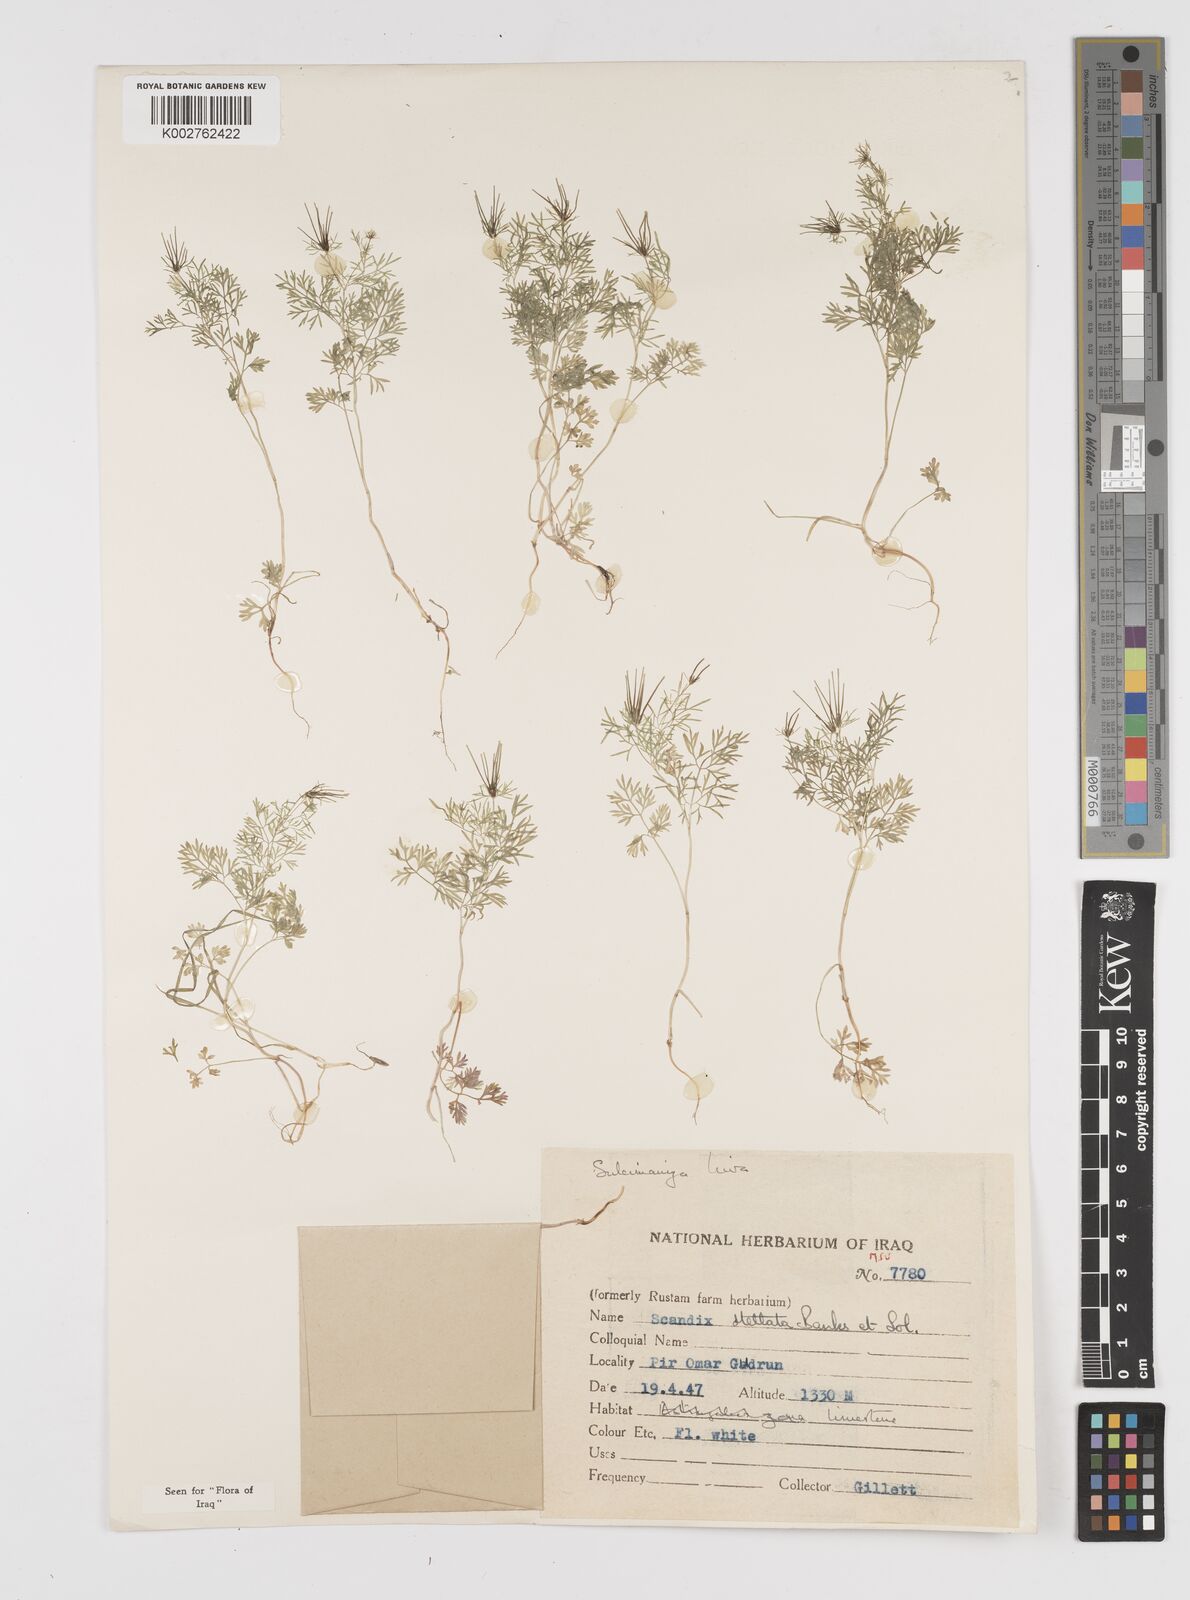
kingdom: Plantae
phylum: Tracheophyta
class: Magnoliopsida
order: Apiales
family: Apiaceae
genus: Scandix
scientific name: Scandix stellata
